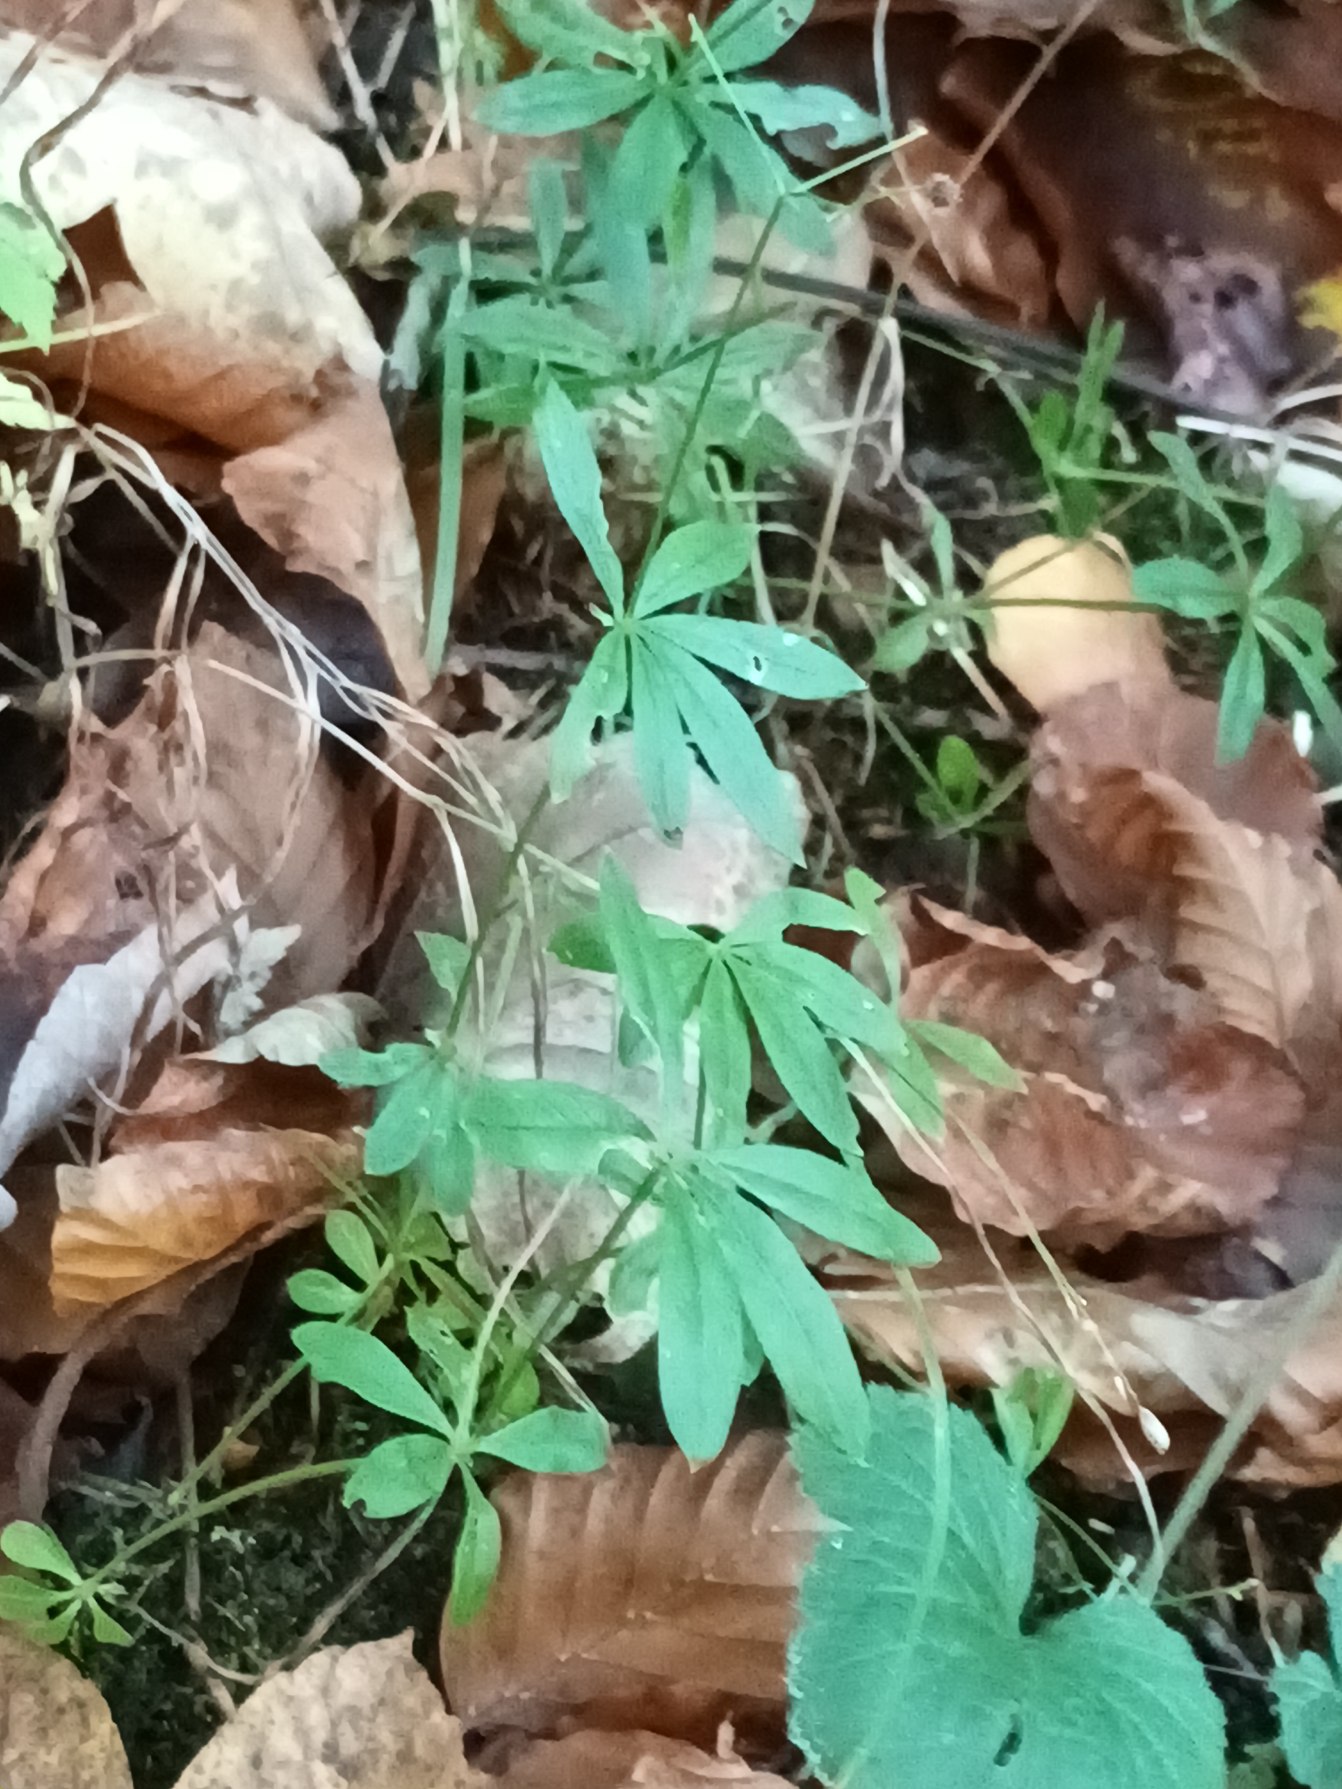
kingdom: Plantae
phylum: Tracheophyta
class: Magnoliopsida
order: Gentianales
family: Rubiaceae
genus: Galium
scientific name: Galium odoratum
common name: Skovmærke
